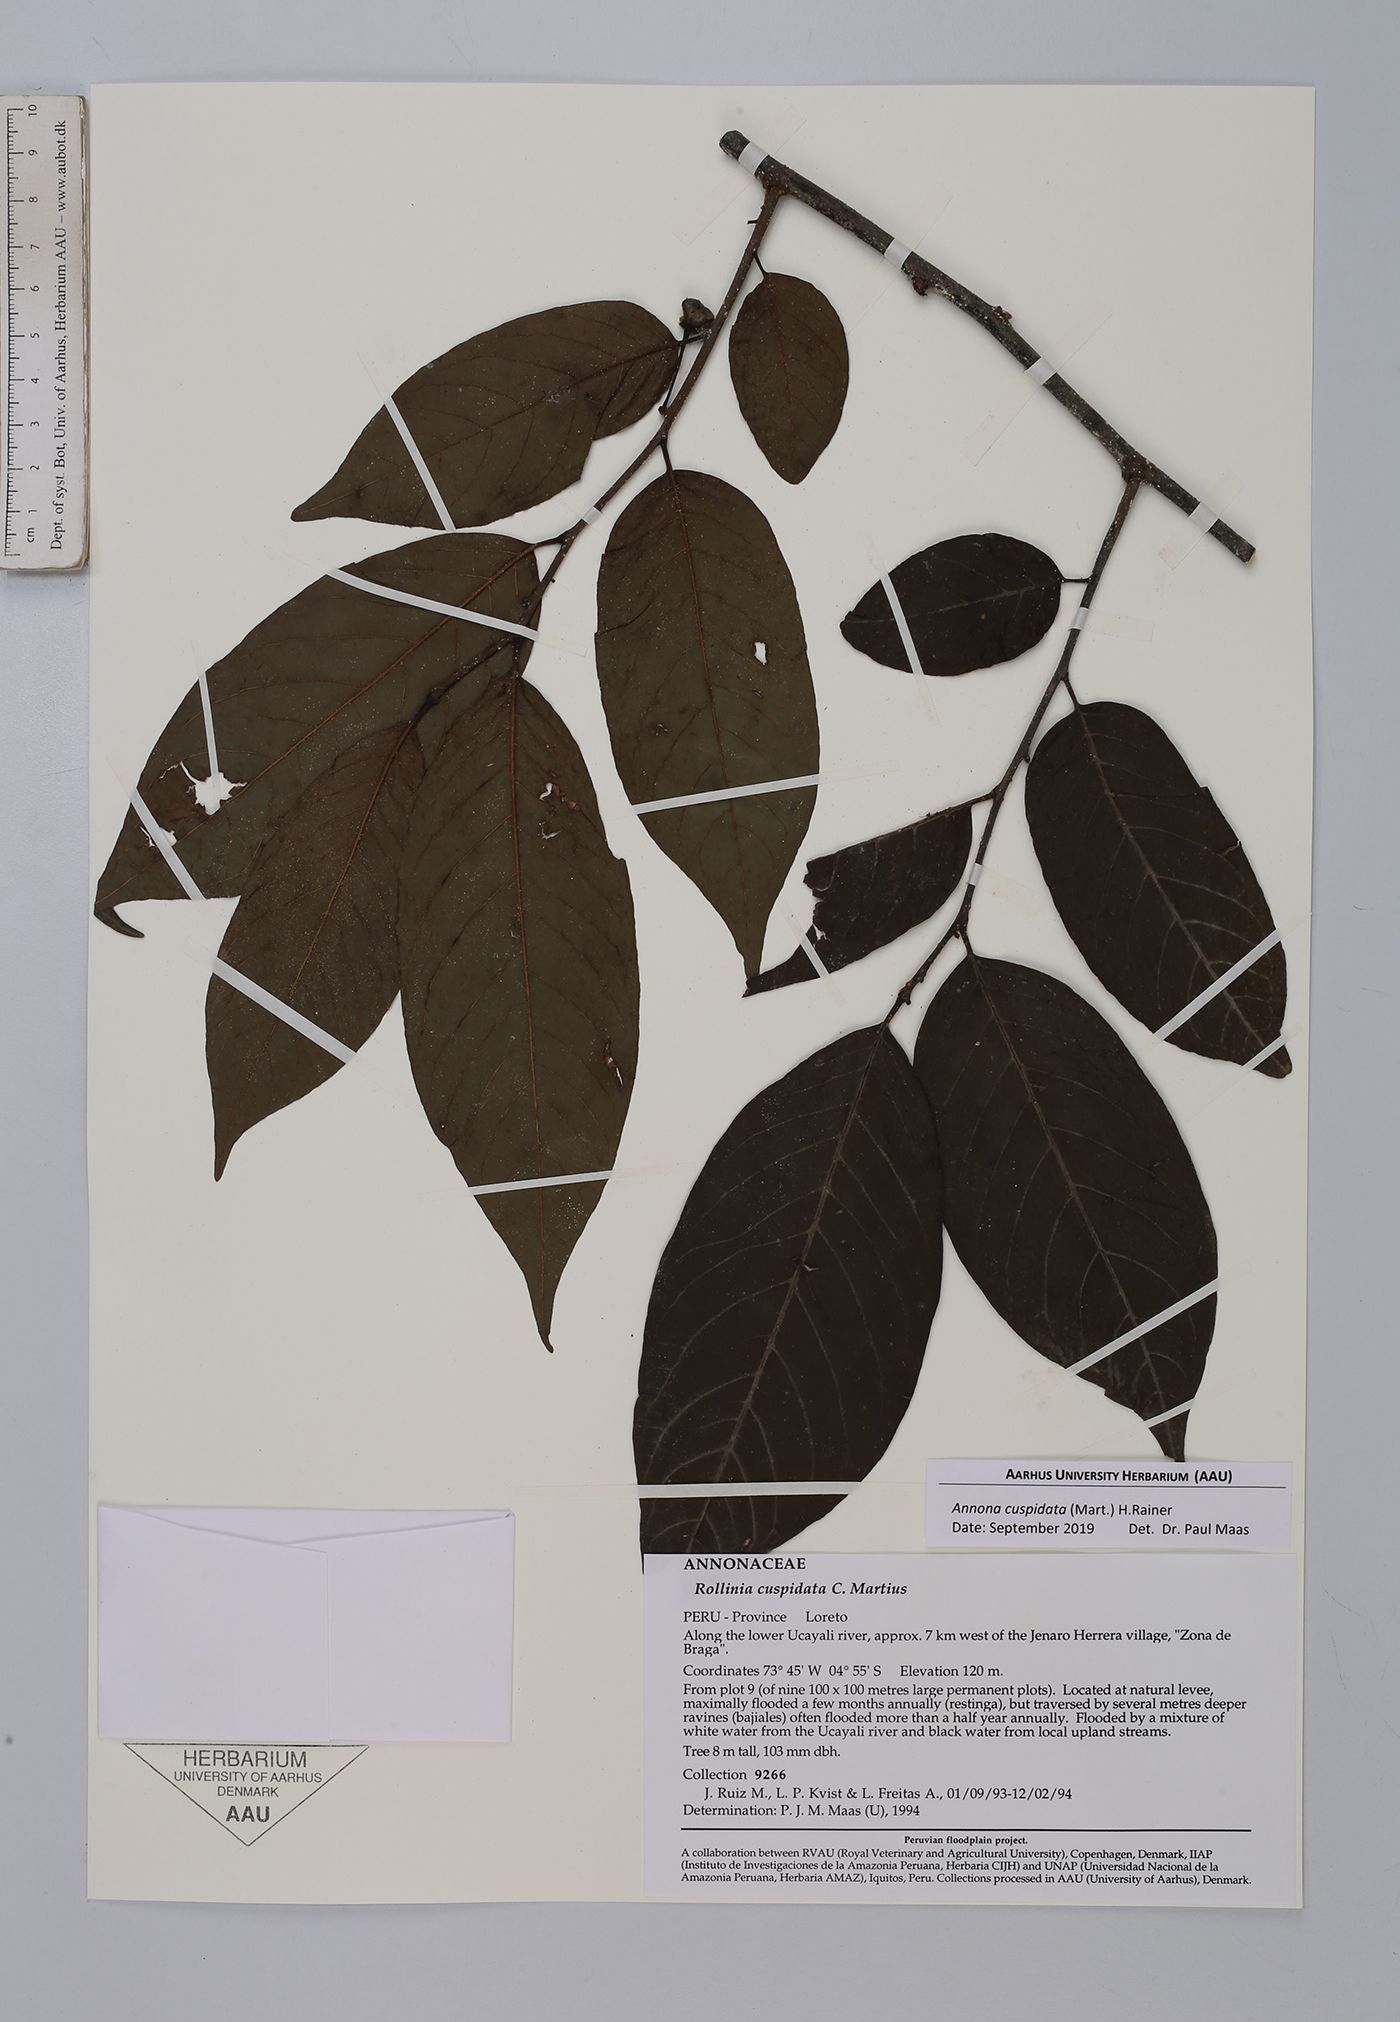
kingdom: Plantae
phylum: Tracheophyta
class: Magnoliopsida
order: Magnoliales
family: Annonaceae
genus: Annona
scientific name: Annona cuspidata
